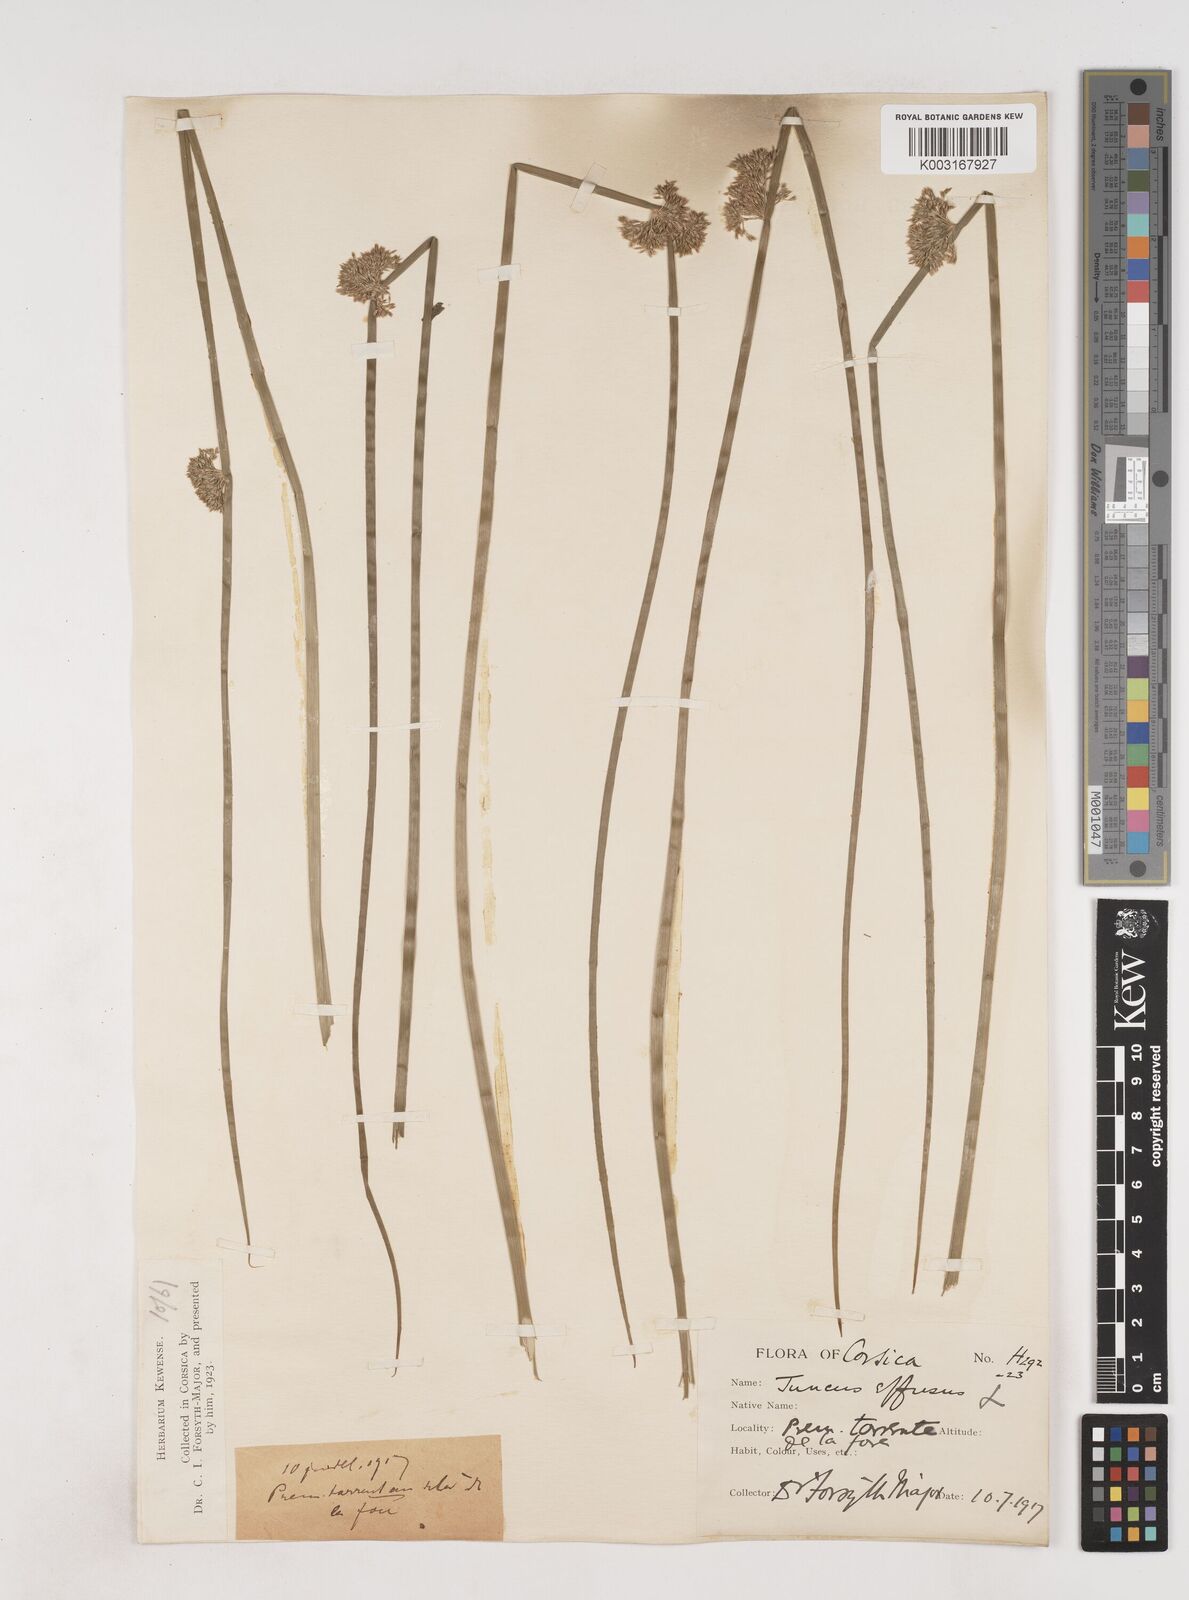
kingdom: Plantae
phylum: Tracheophyta
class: Liliopsida
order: Poales
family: Juncaceae
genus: Juncus
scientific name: Juncus effusus
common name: Soft rush
